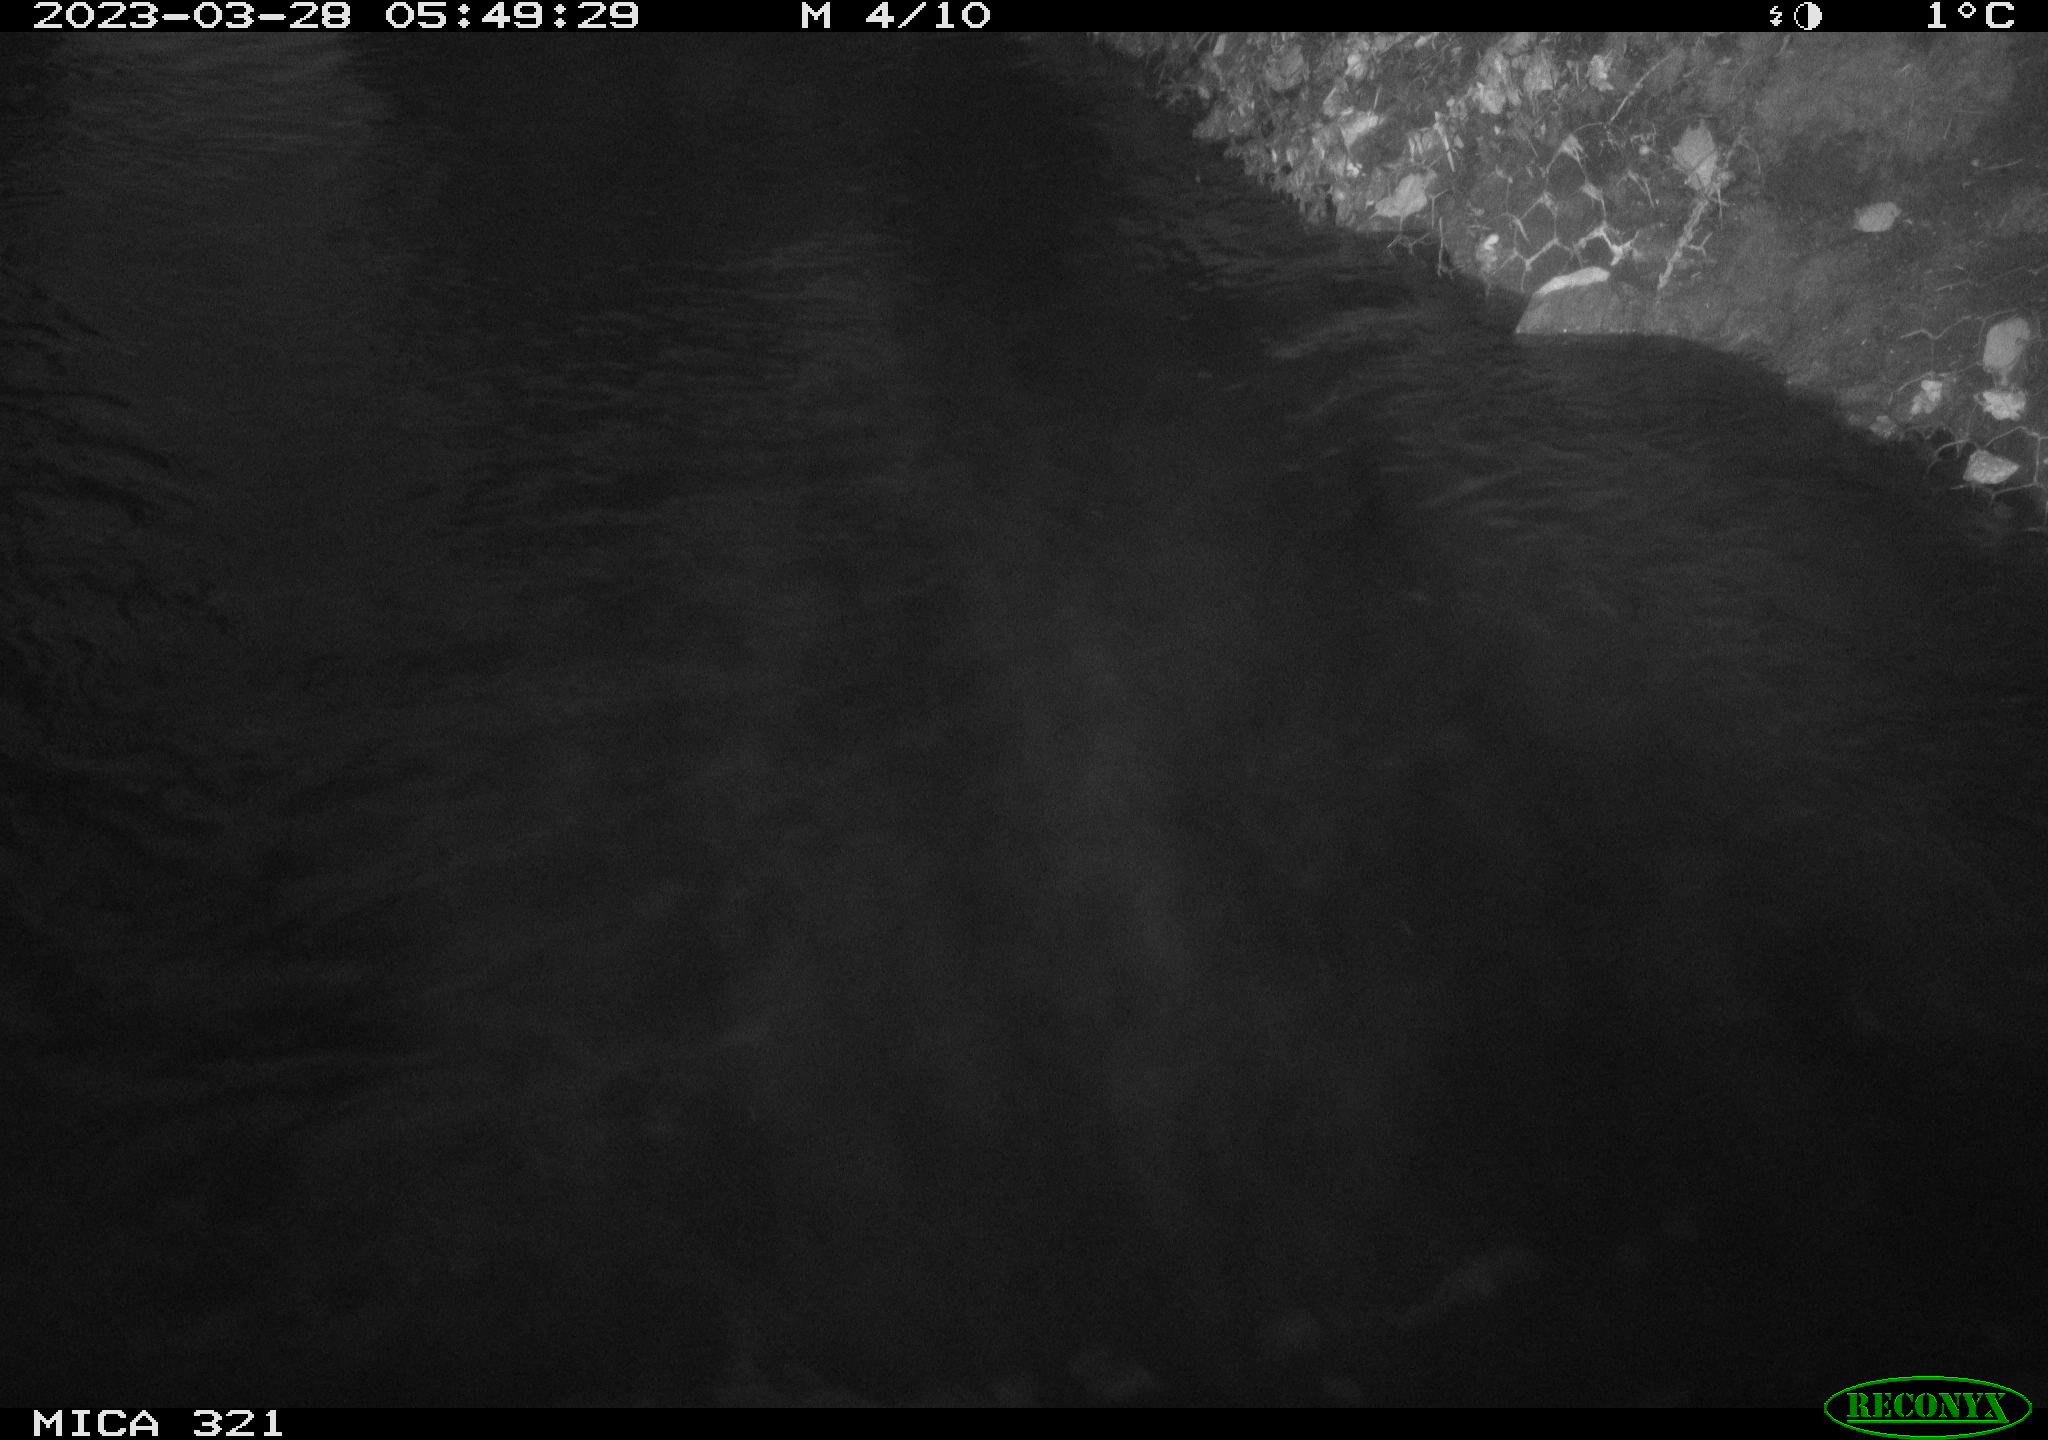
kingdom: Animalia
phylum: Chordata
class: Mammalia
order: Rodentia
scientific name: Rodentia
